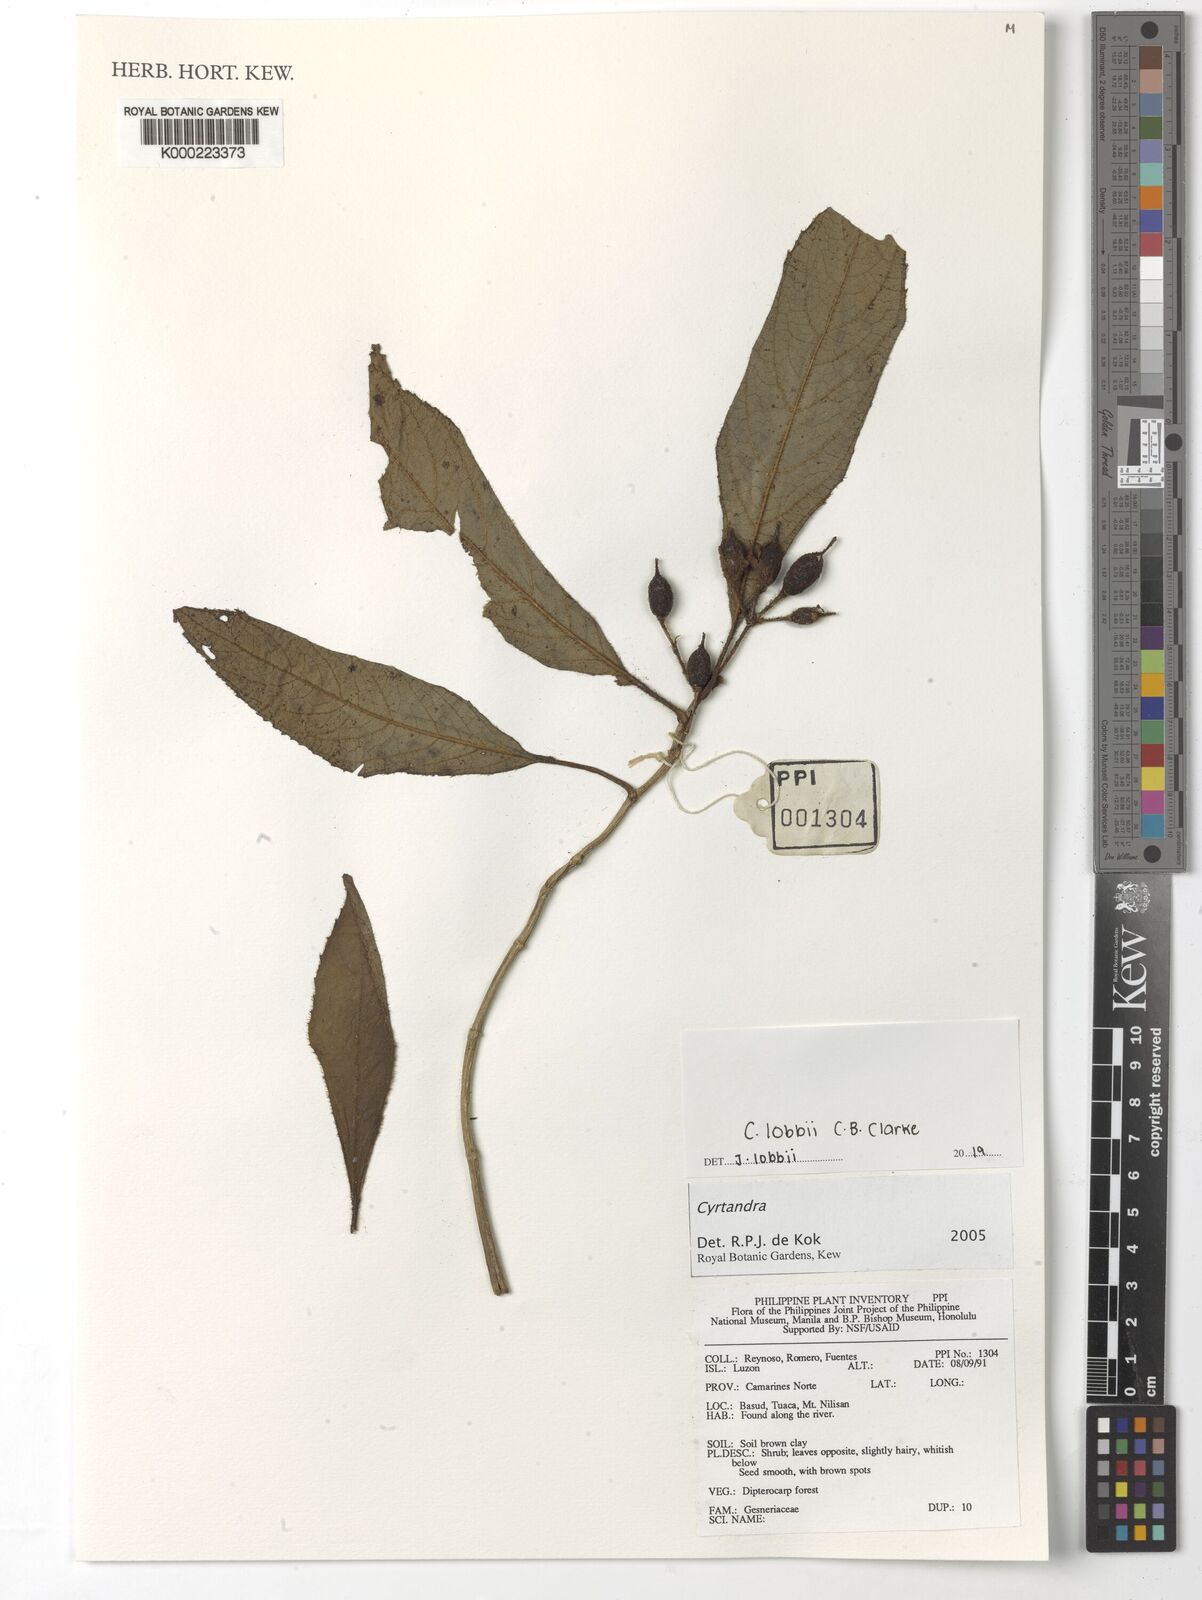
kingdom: Plantae
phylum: Tracheophyta
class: Magnoliopsida
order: Lamiales
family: Gesneriaceae
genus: Cyrtandra
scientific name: Cyrtandra
